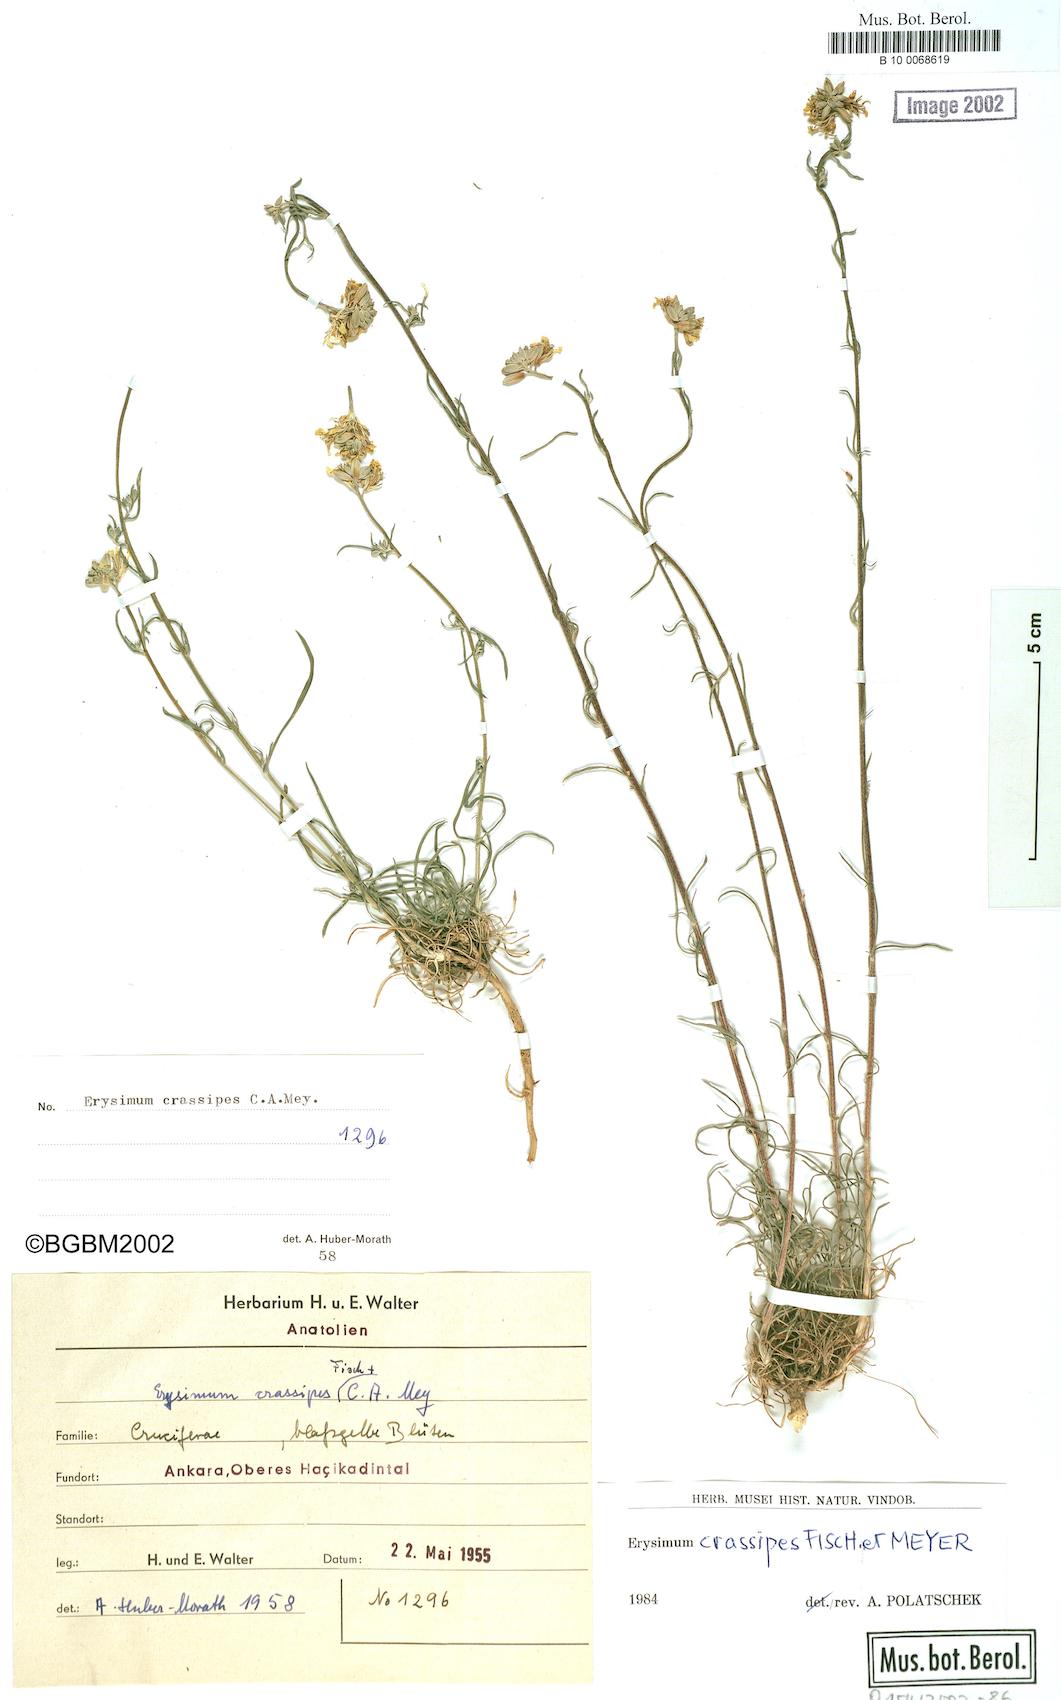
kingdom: Plantae
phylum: Tracheophyta
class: Magnoliopsida
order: Brassicales
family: Brassicaceae
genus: Erysimum
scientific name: Erysimum crassipes
